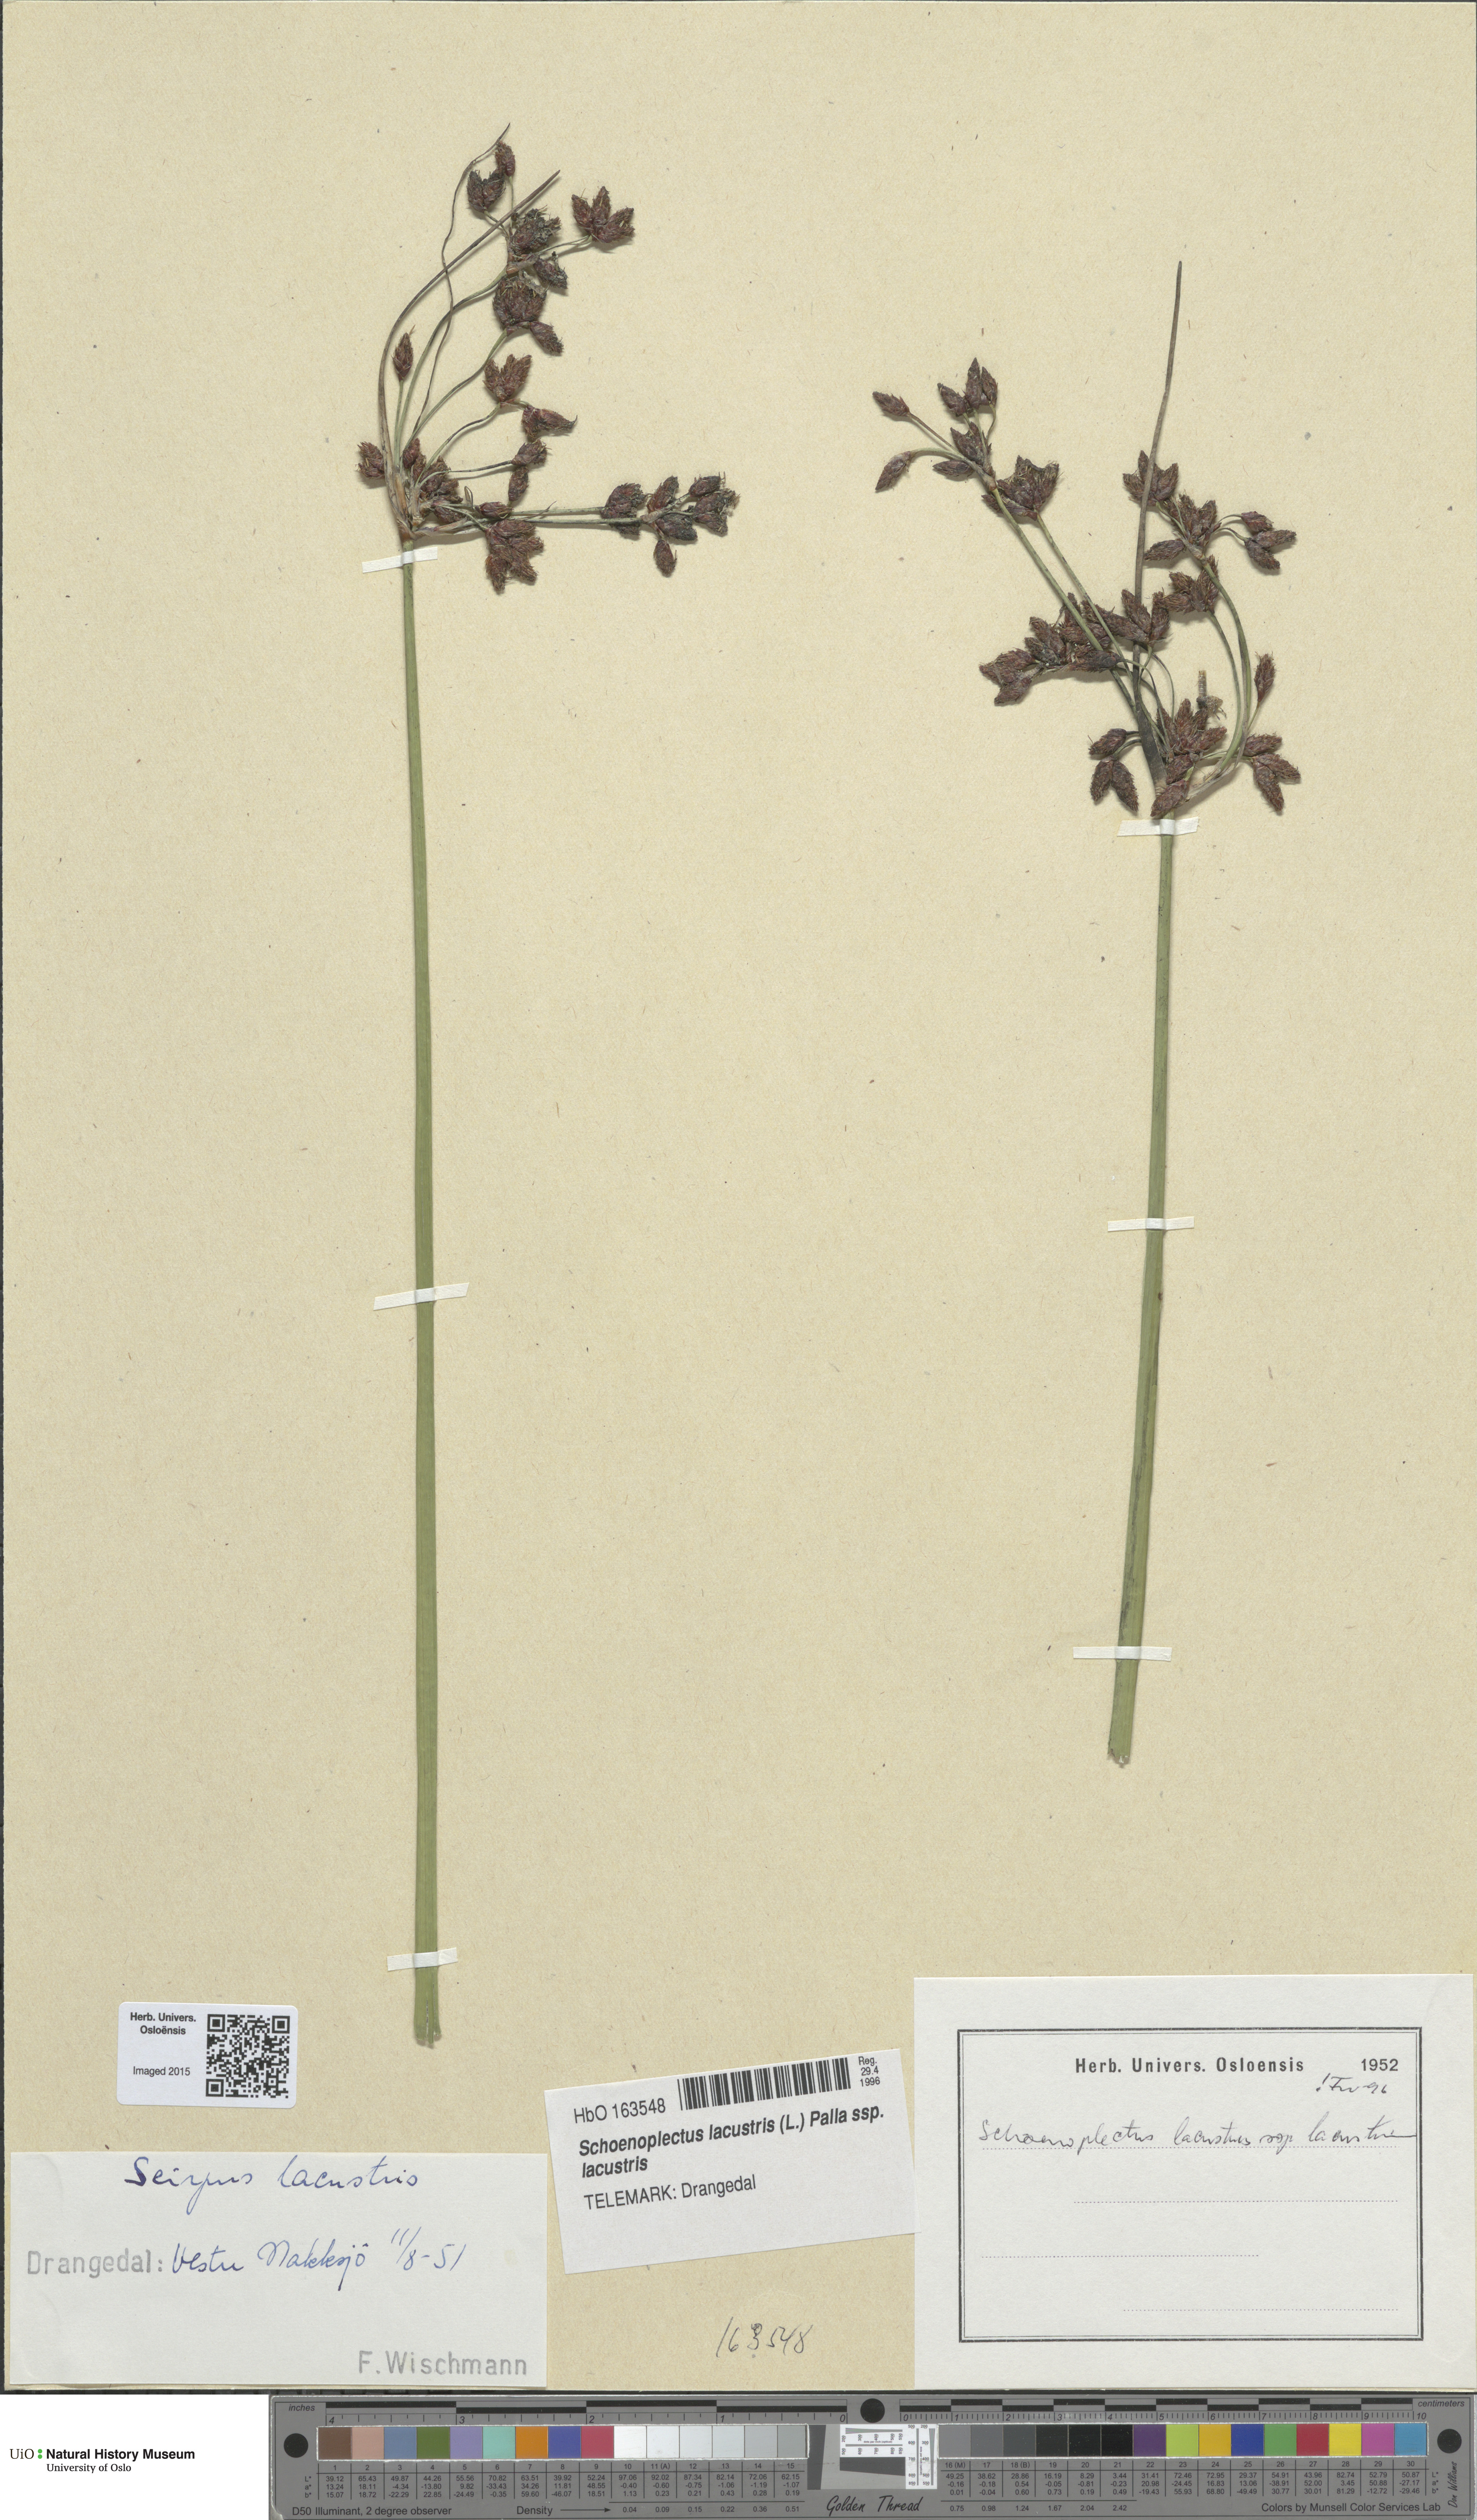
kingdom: Plantae
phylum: Tracheophyta
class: Liliopsida
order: Poales
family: Cyperaceae
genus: Schoenoplectus
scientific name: Schoenoplectus lacustris
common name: Common club-rush
